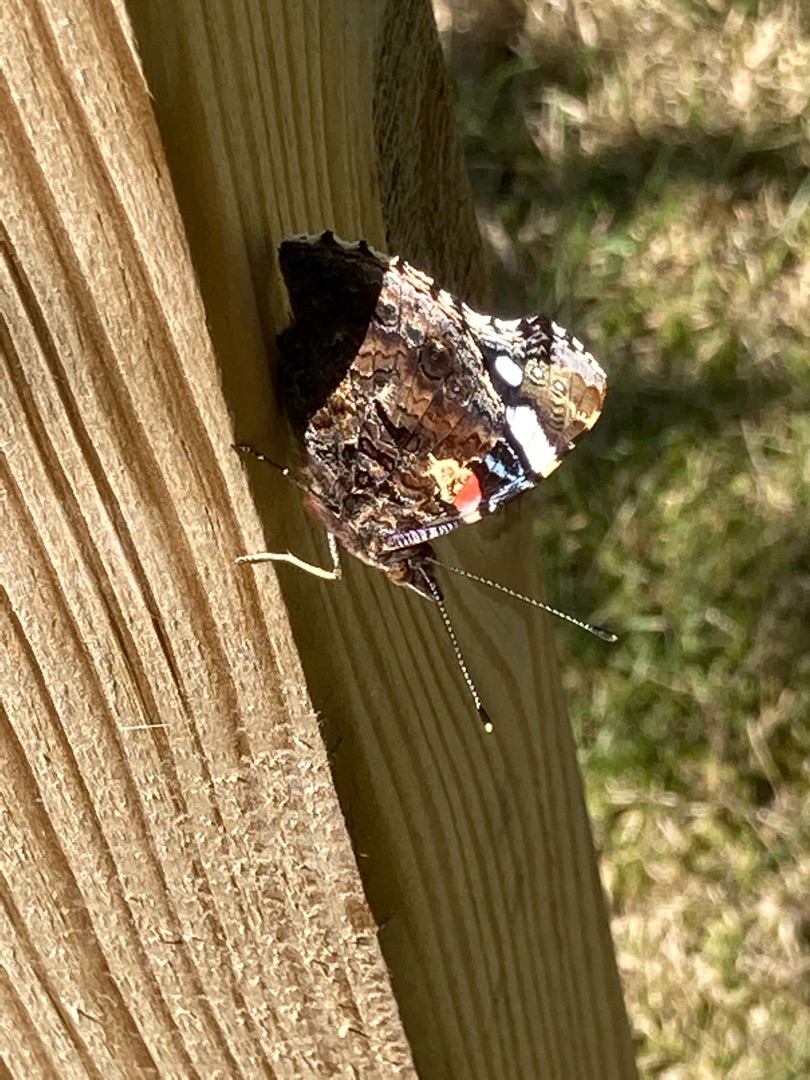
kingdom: Animalia
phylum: Arthropoda
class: Insecta
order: Lepidoptera
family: Nymphalidae
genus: Vanessa
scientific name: Vanessa atalanta
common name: Admiral
